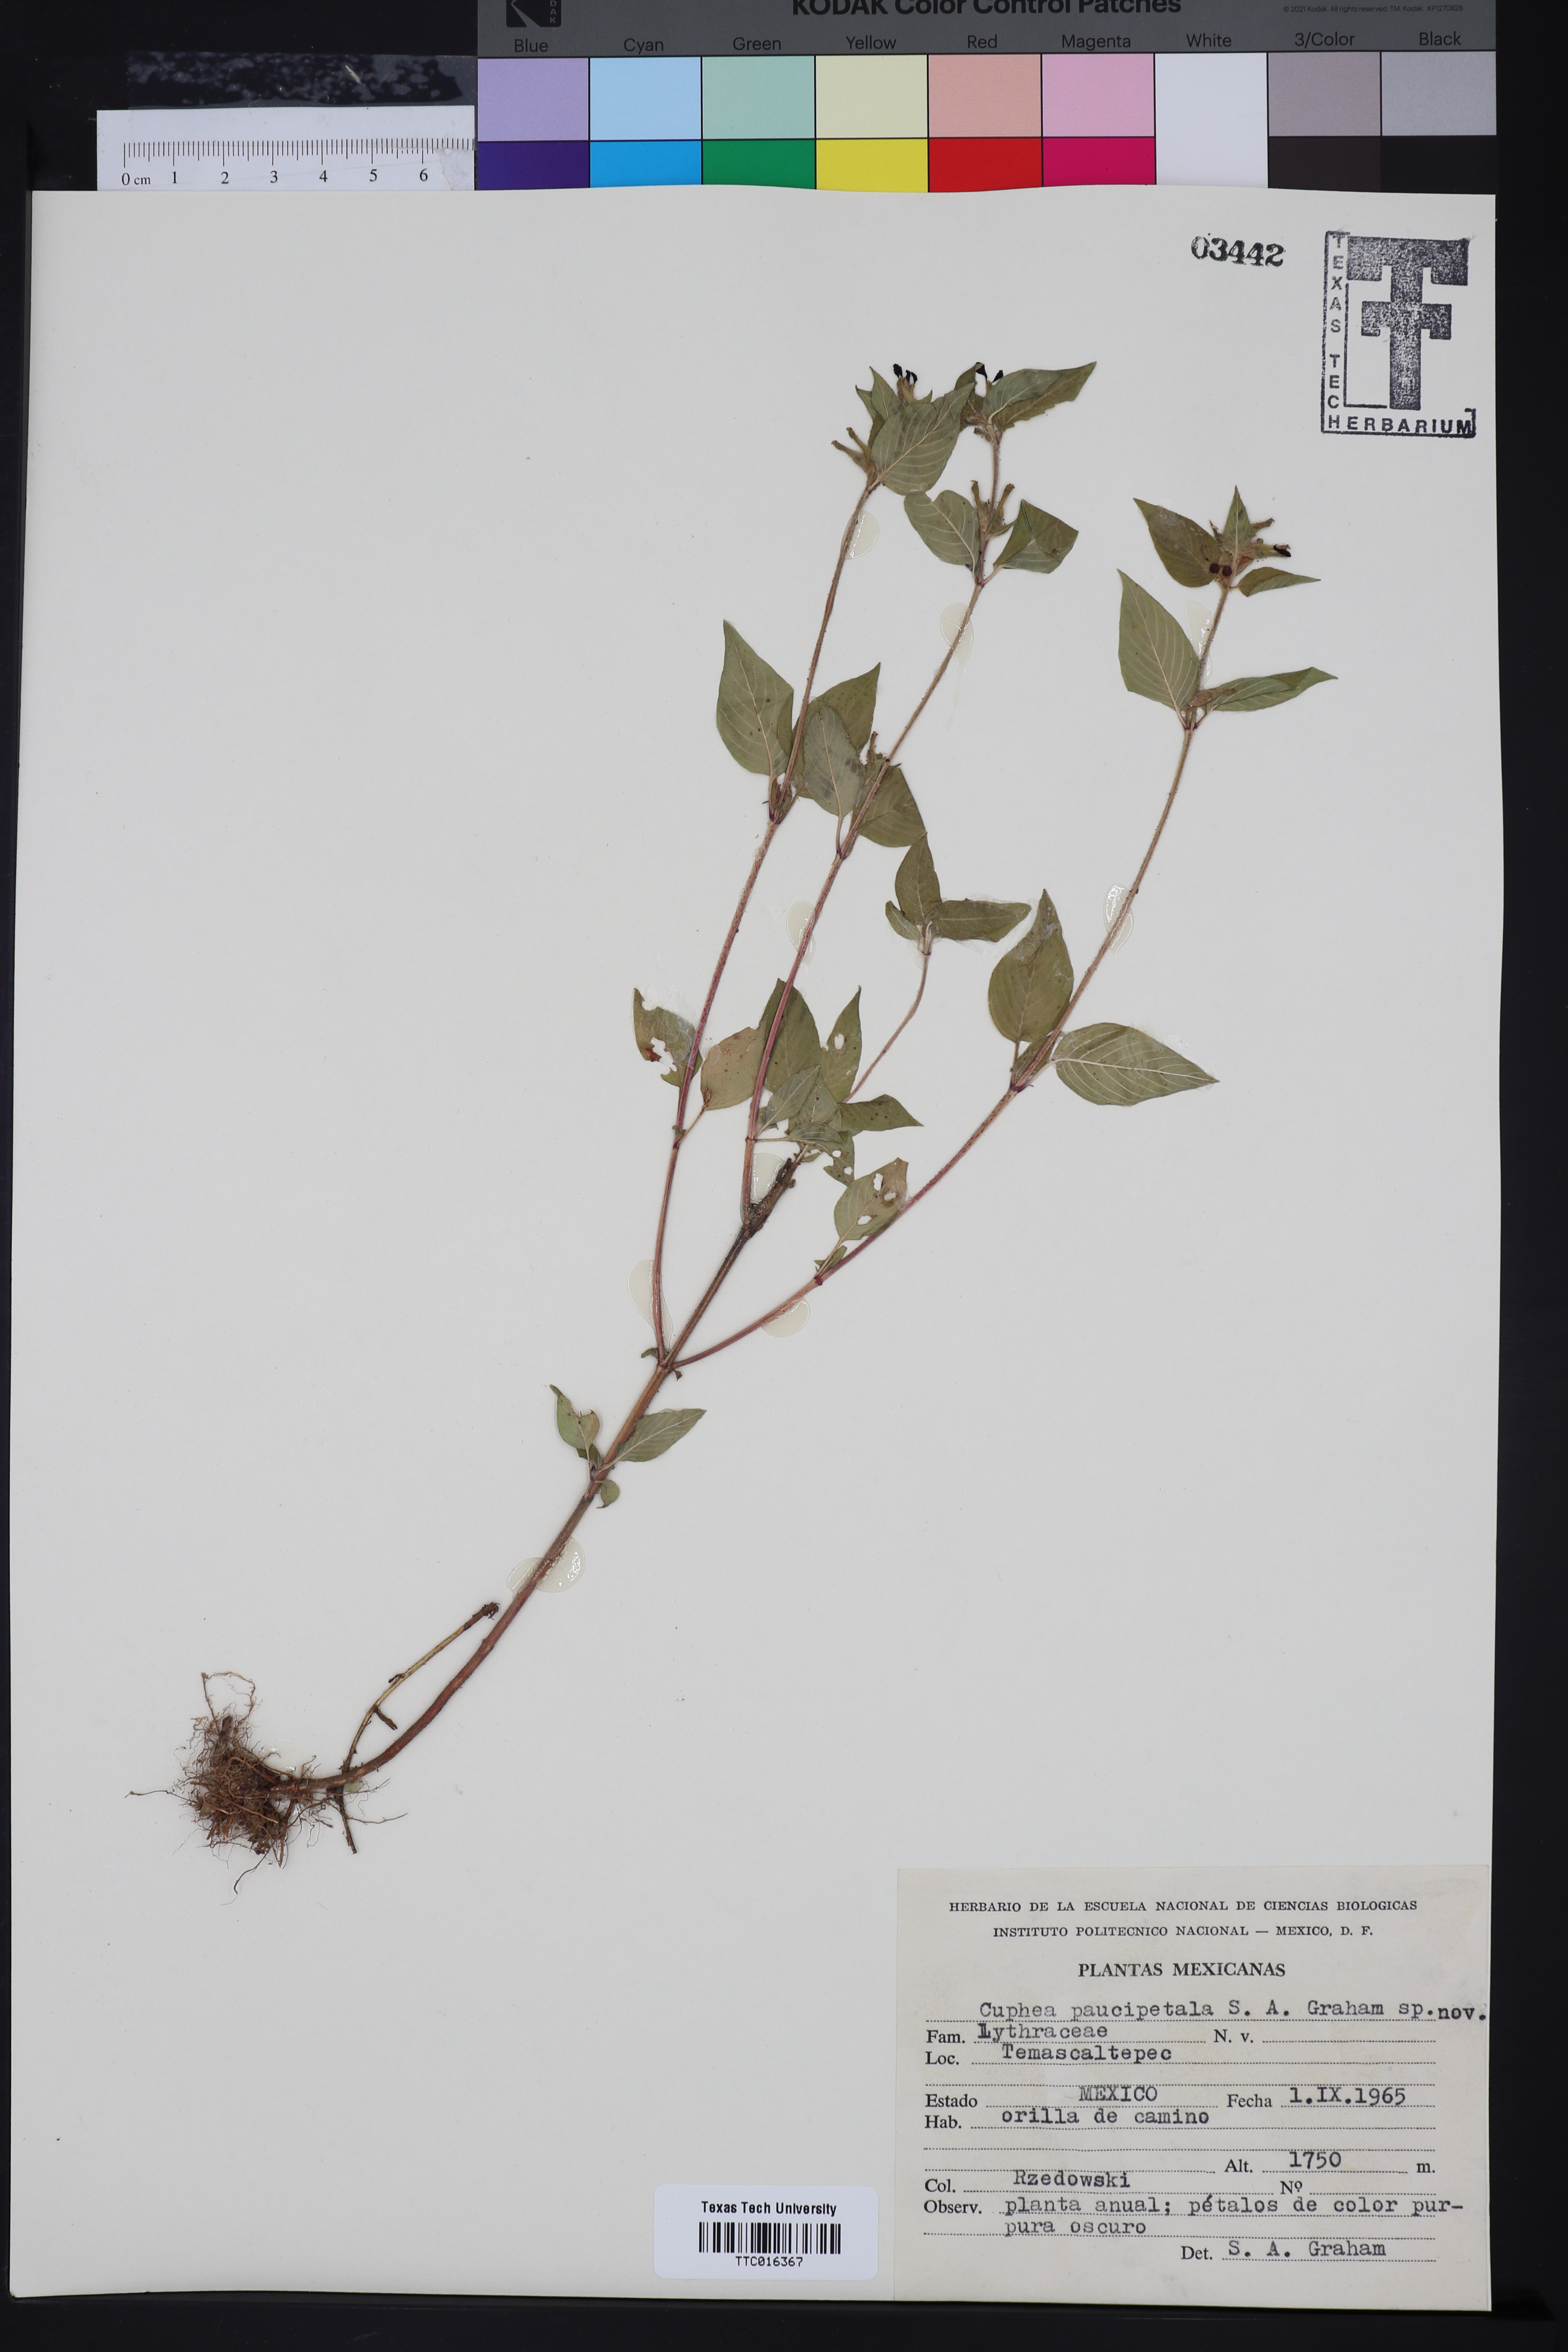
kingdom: Plantae
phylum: Tracheophyta
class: Magnoliopsida
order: Myrtales
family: Lythraceae
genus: Cuphea
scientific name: Cuphea paucipetala
